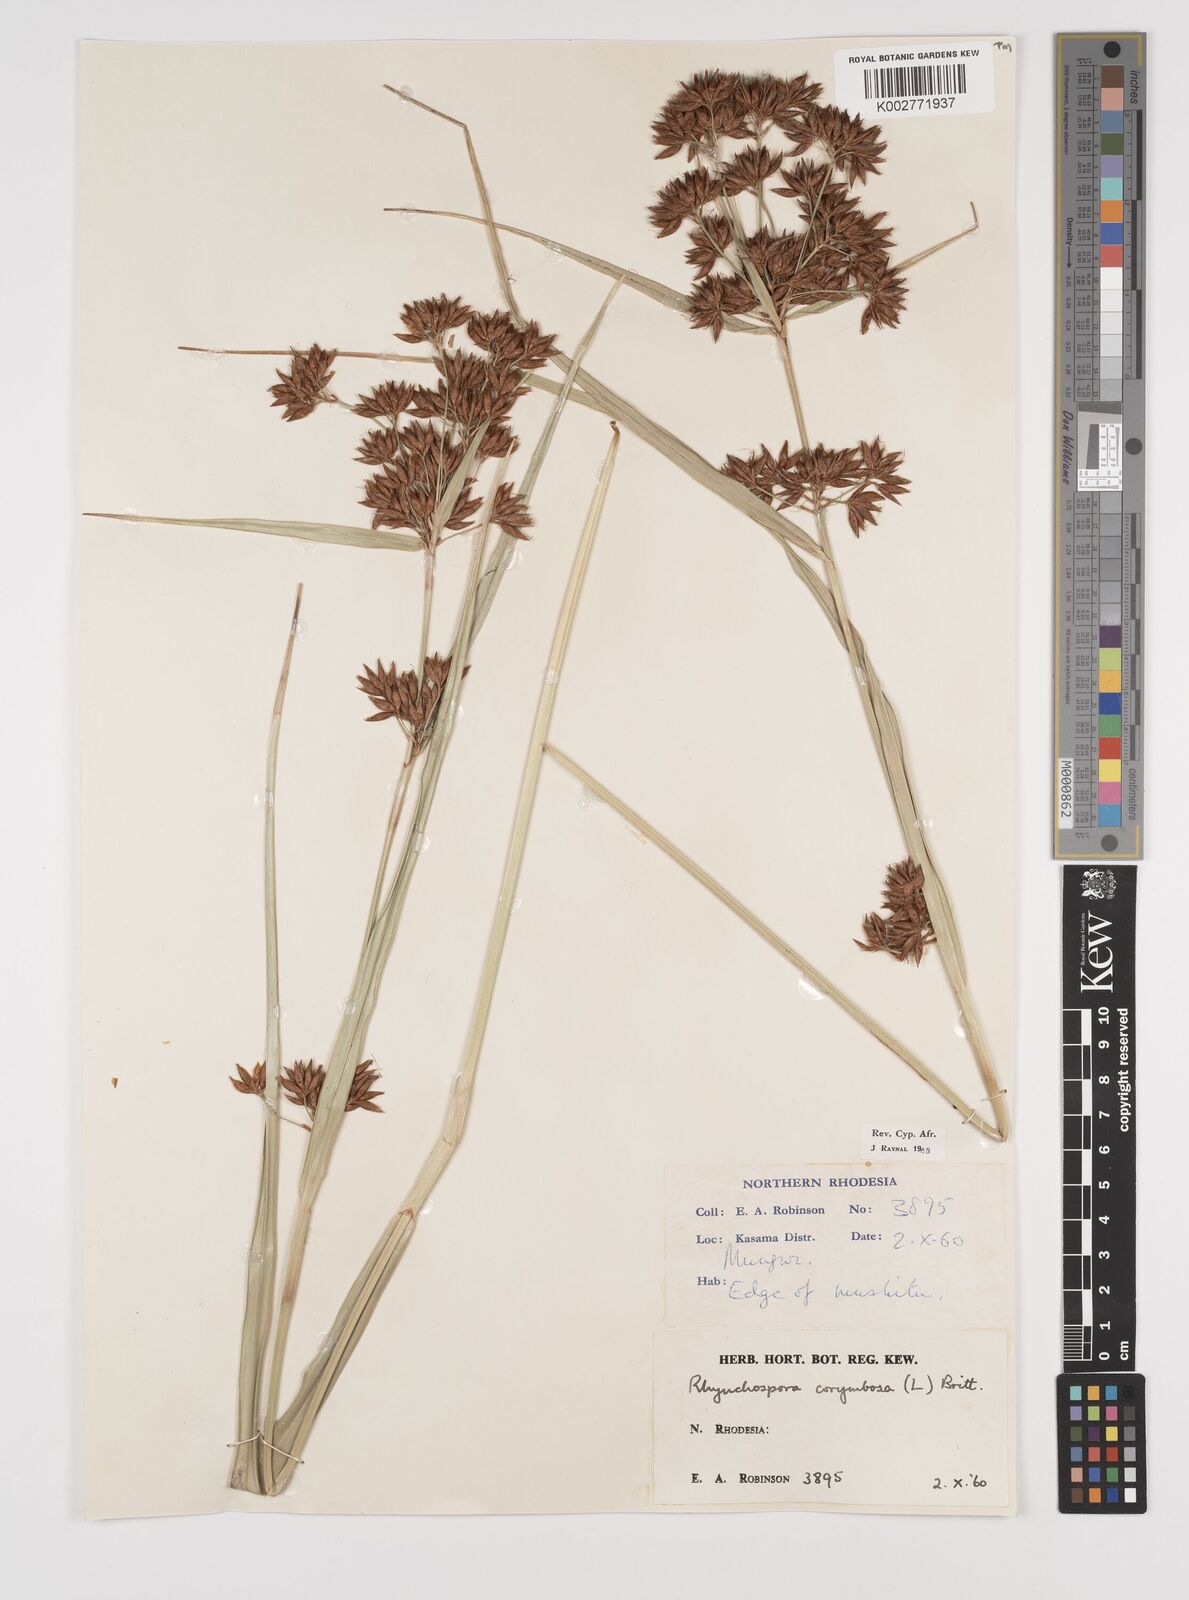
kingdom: Plantae
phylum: Tracheophyta
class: Liliopsida
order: Poales
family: Cyperaceae
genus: Rhynchospora
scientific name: Rhynchospora corymbosa
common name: Golden beak sedge
